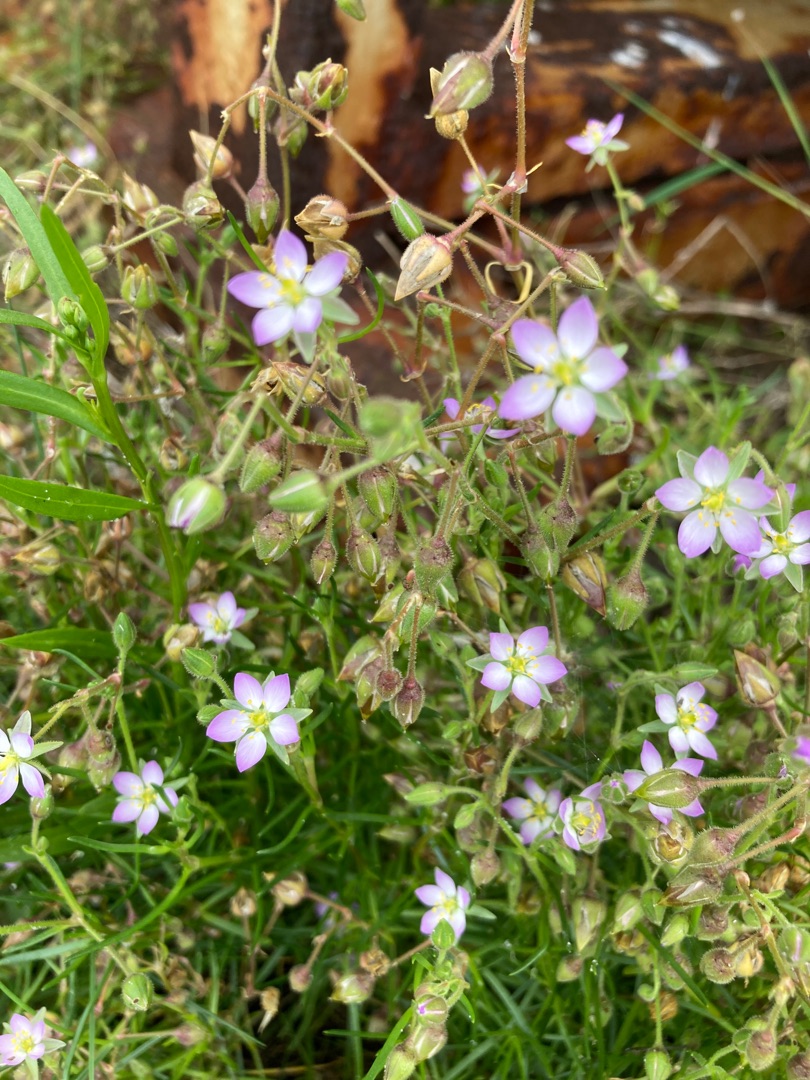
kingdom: Plantae
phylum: Tracheophyta
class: Magnoliopsida
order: Caryophyllales
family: Caryophyllaceae
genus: Spergularia
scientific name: Spergularia media
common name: Vingefrøet hindeknæ
